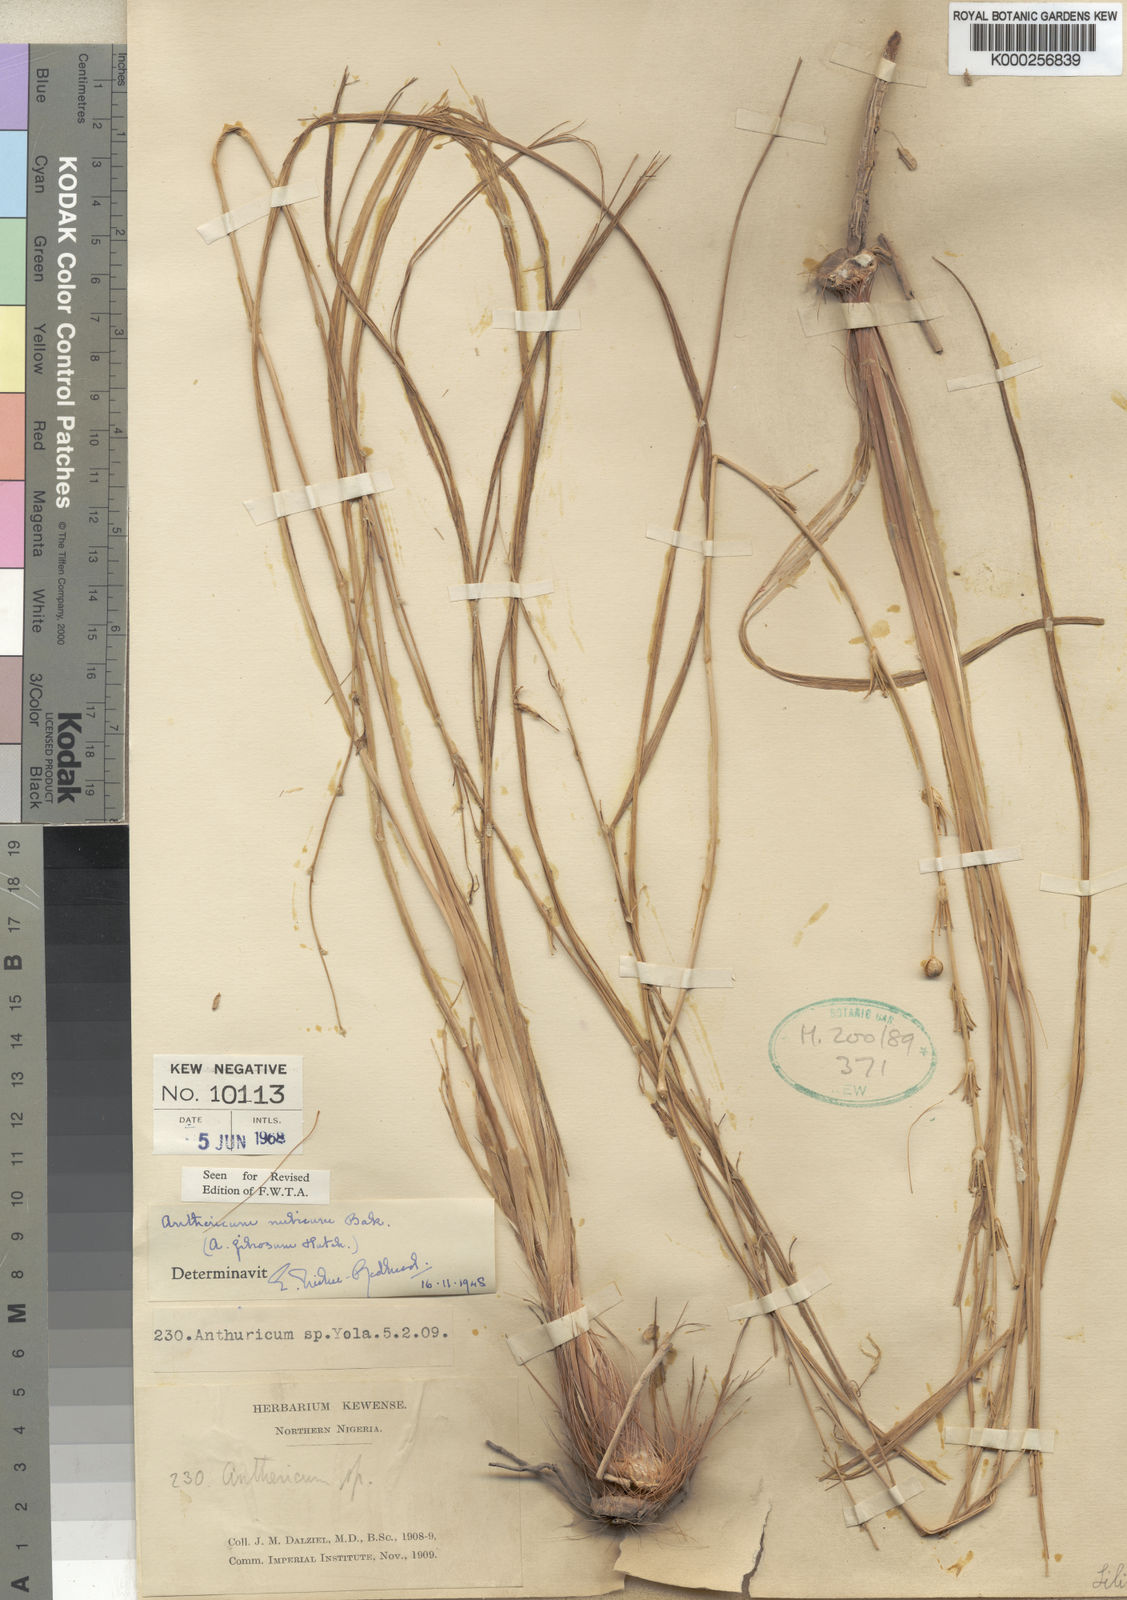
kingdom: Plantae
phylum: Tracheophyta
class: Liliopsida
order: Asparagales
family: Asparagaceae
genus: Chlorophytum
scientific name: Chlorophytum nubicum
